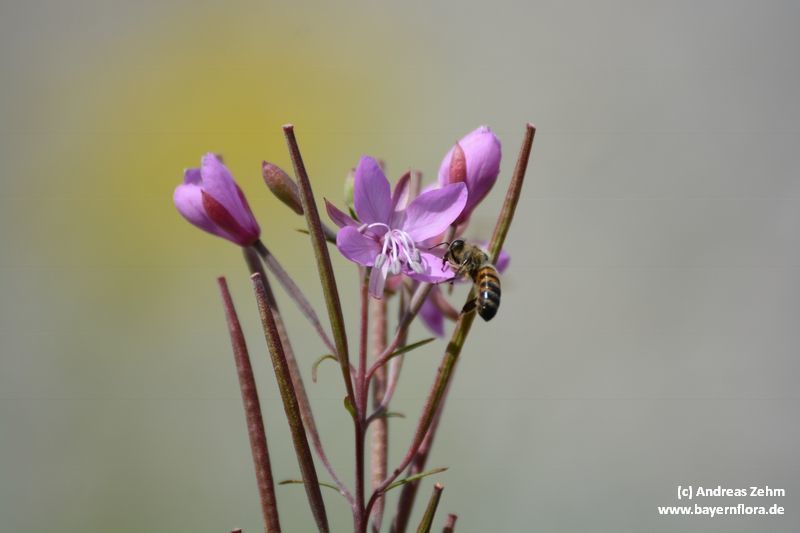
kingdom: Plantae
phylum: Tracheophyta
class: Magnoliopsida
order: Myrtales
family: Onagraceae
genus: Chamaenerion
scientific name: Chamaenerion dodonaei
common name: Rosemary-leaved willowherb
